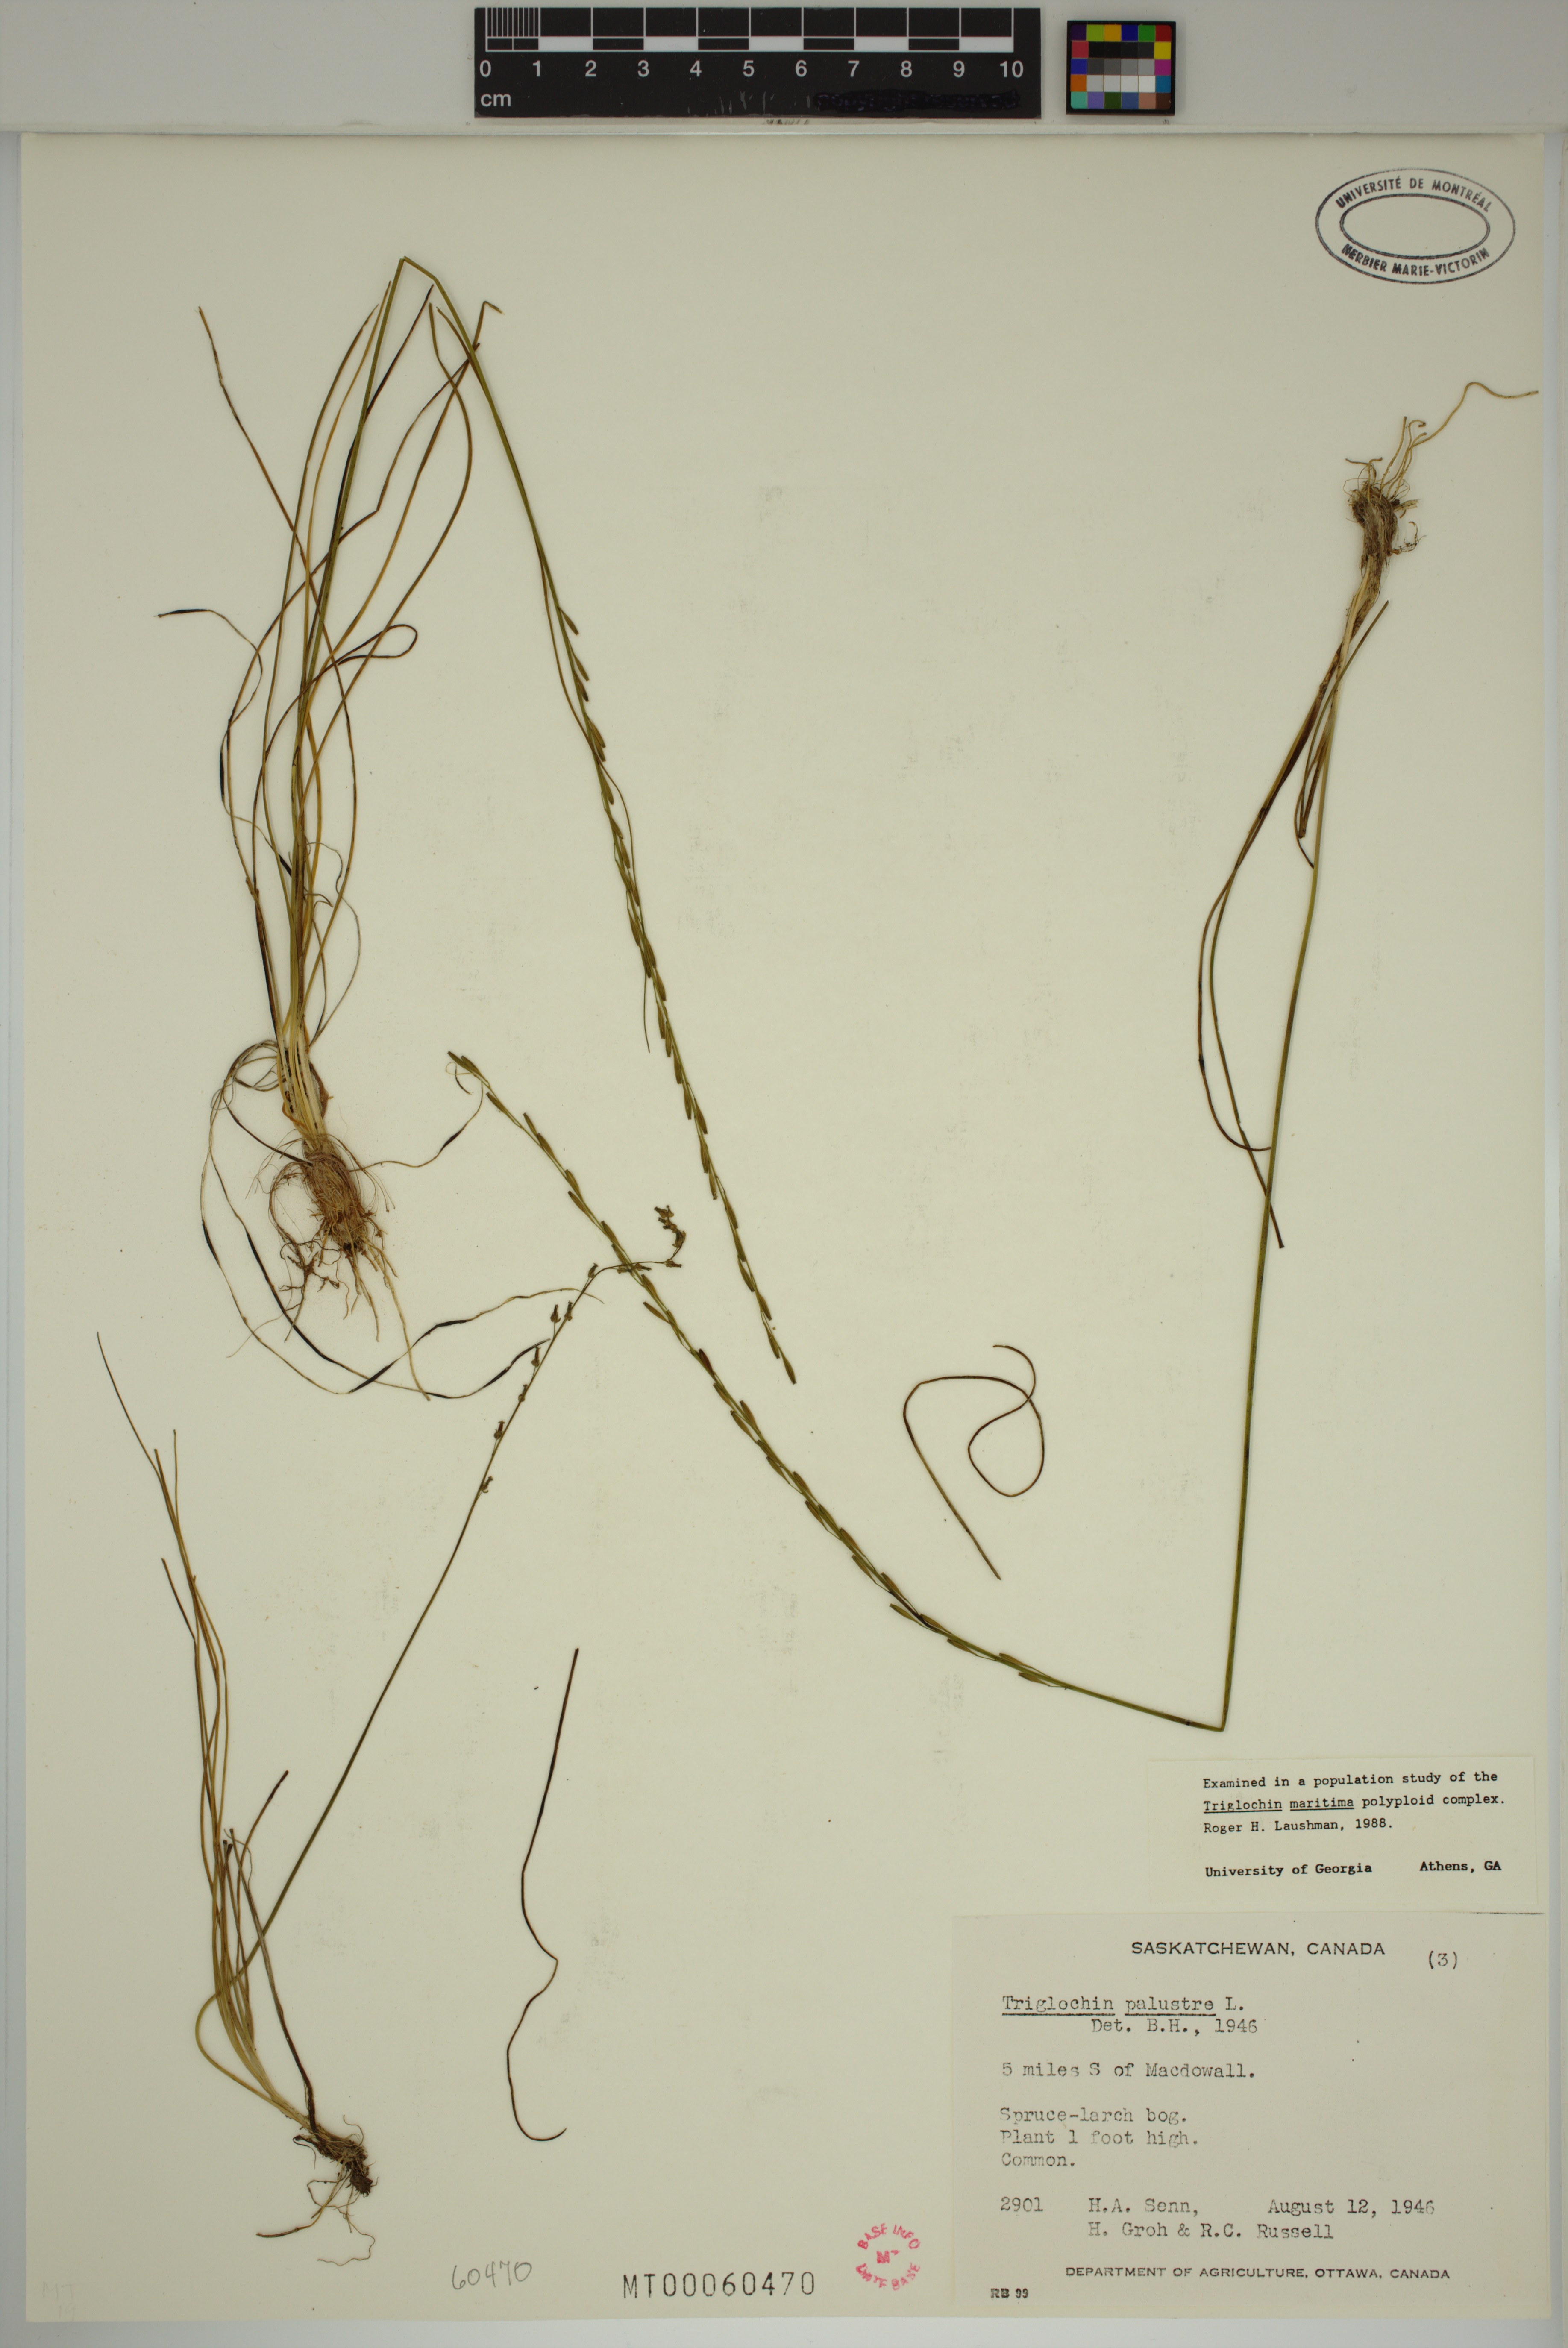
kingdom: Plantae
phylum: Tracheophyta
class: Liliopsida
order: Alismatales
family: Juncaginaceae
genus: Triglochin
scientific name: Triglochin palustris
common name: Marsh arrowgrass
